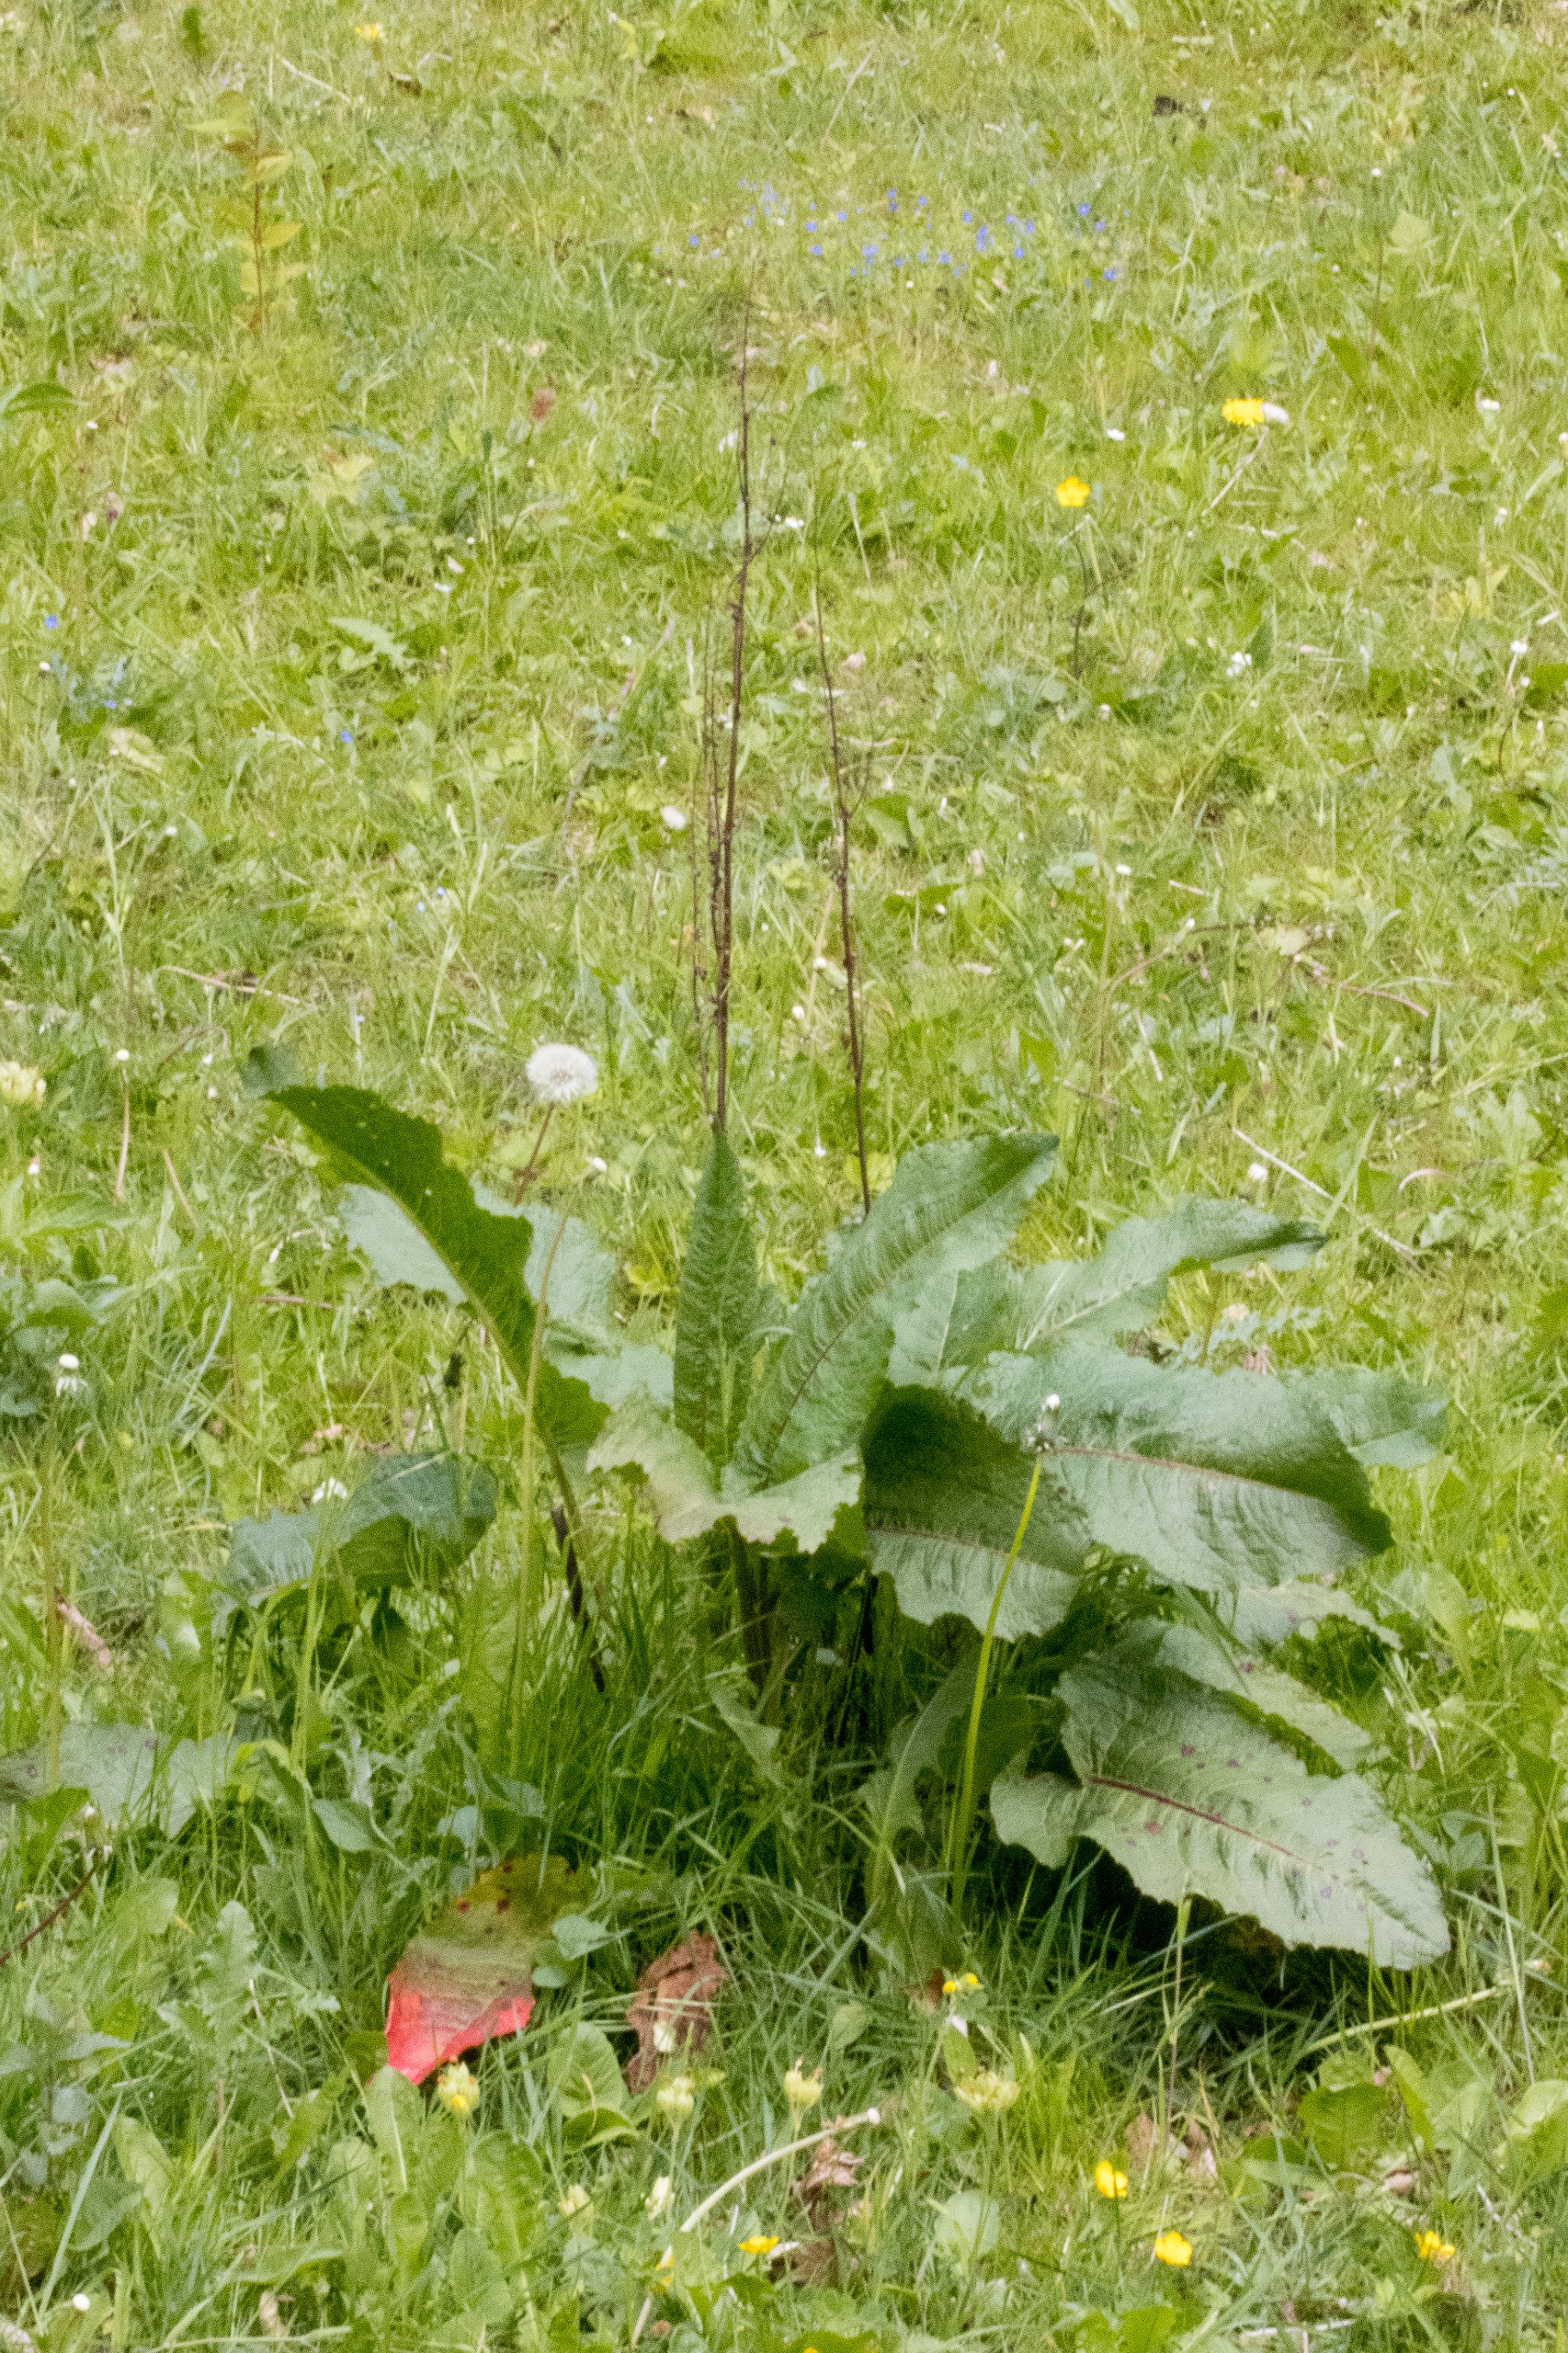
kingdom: Plantae
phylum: Tracheophyta
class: Magnoliopsida
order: Caryophyllales
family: Polygonaceae
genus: Rumex
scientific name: Rumex obtusifolius
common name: Butbladet skræppe
